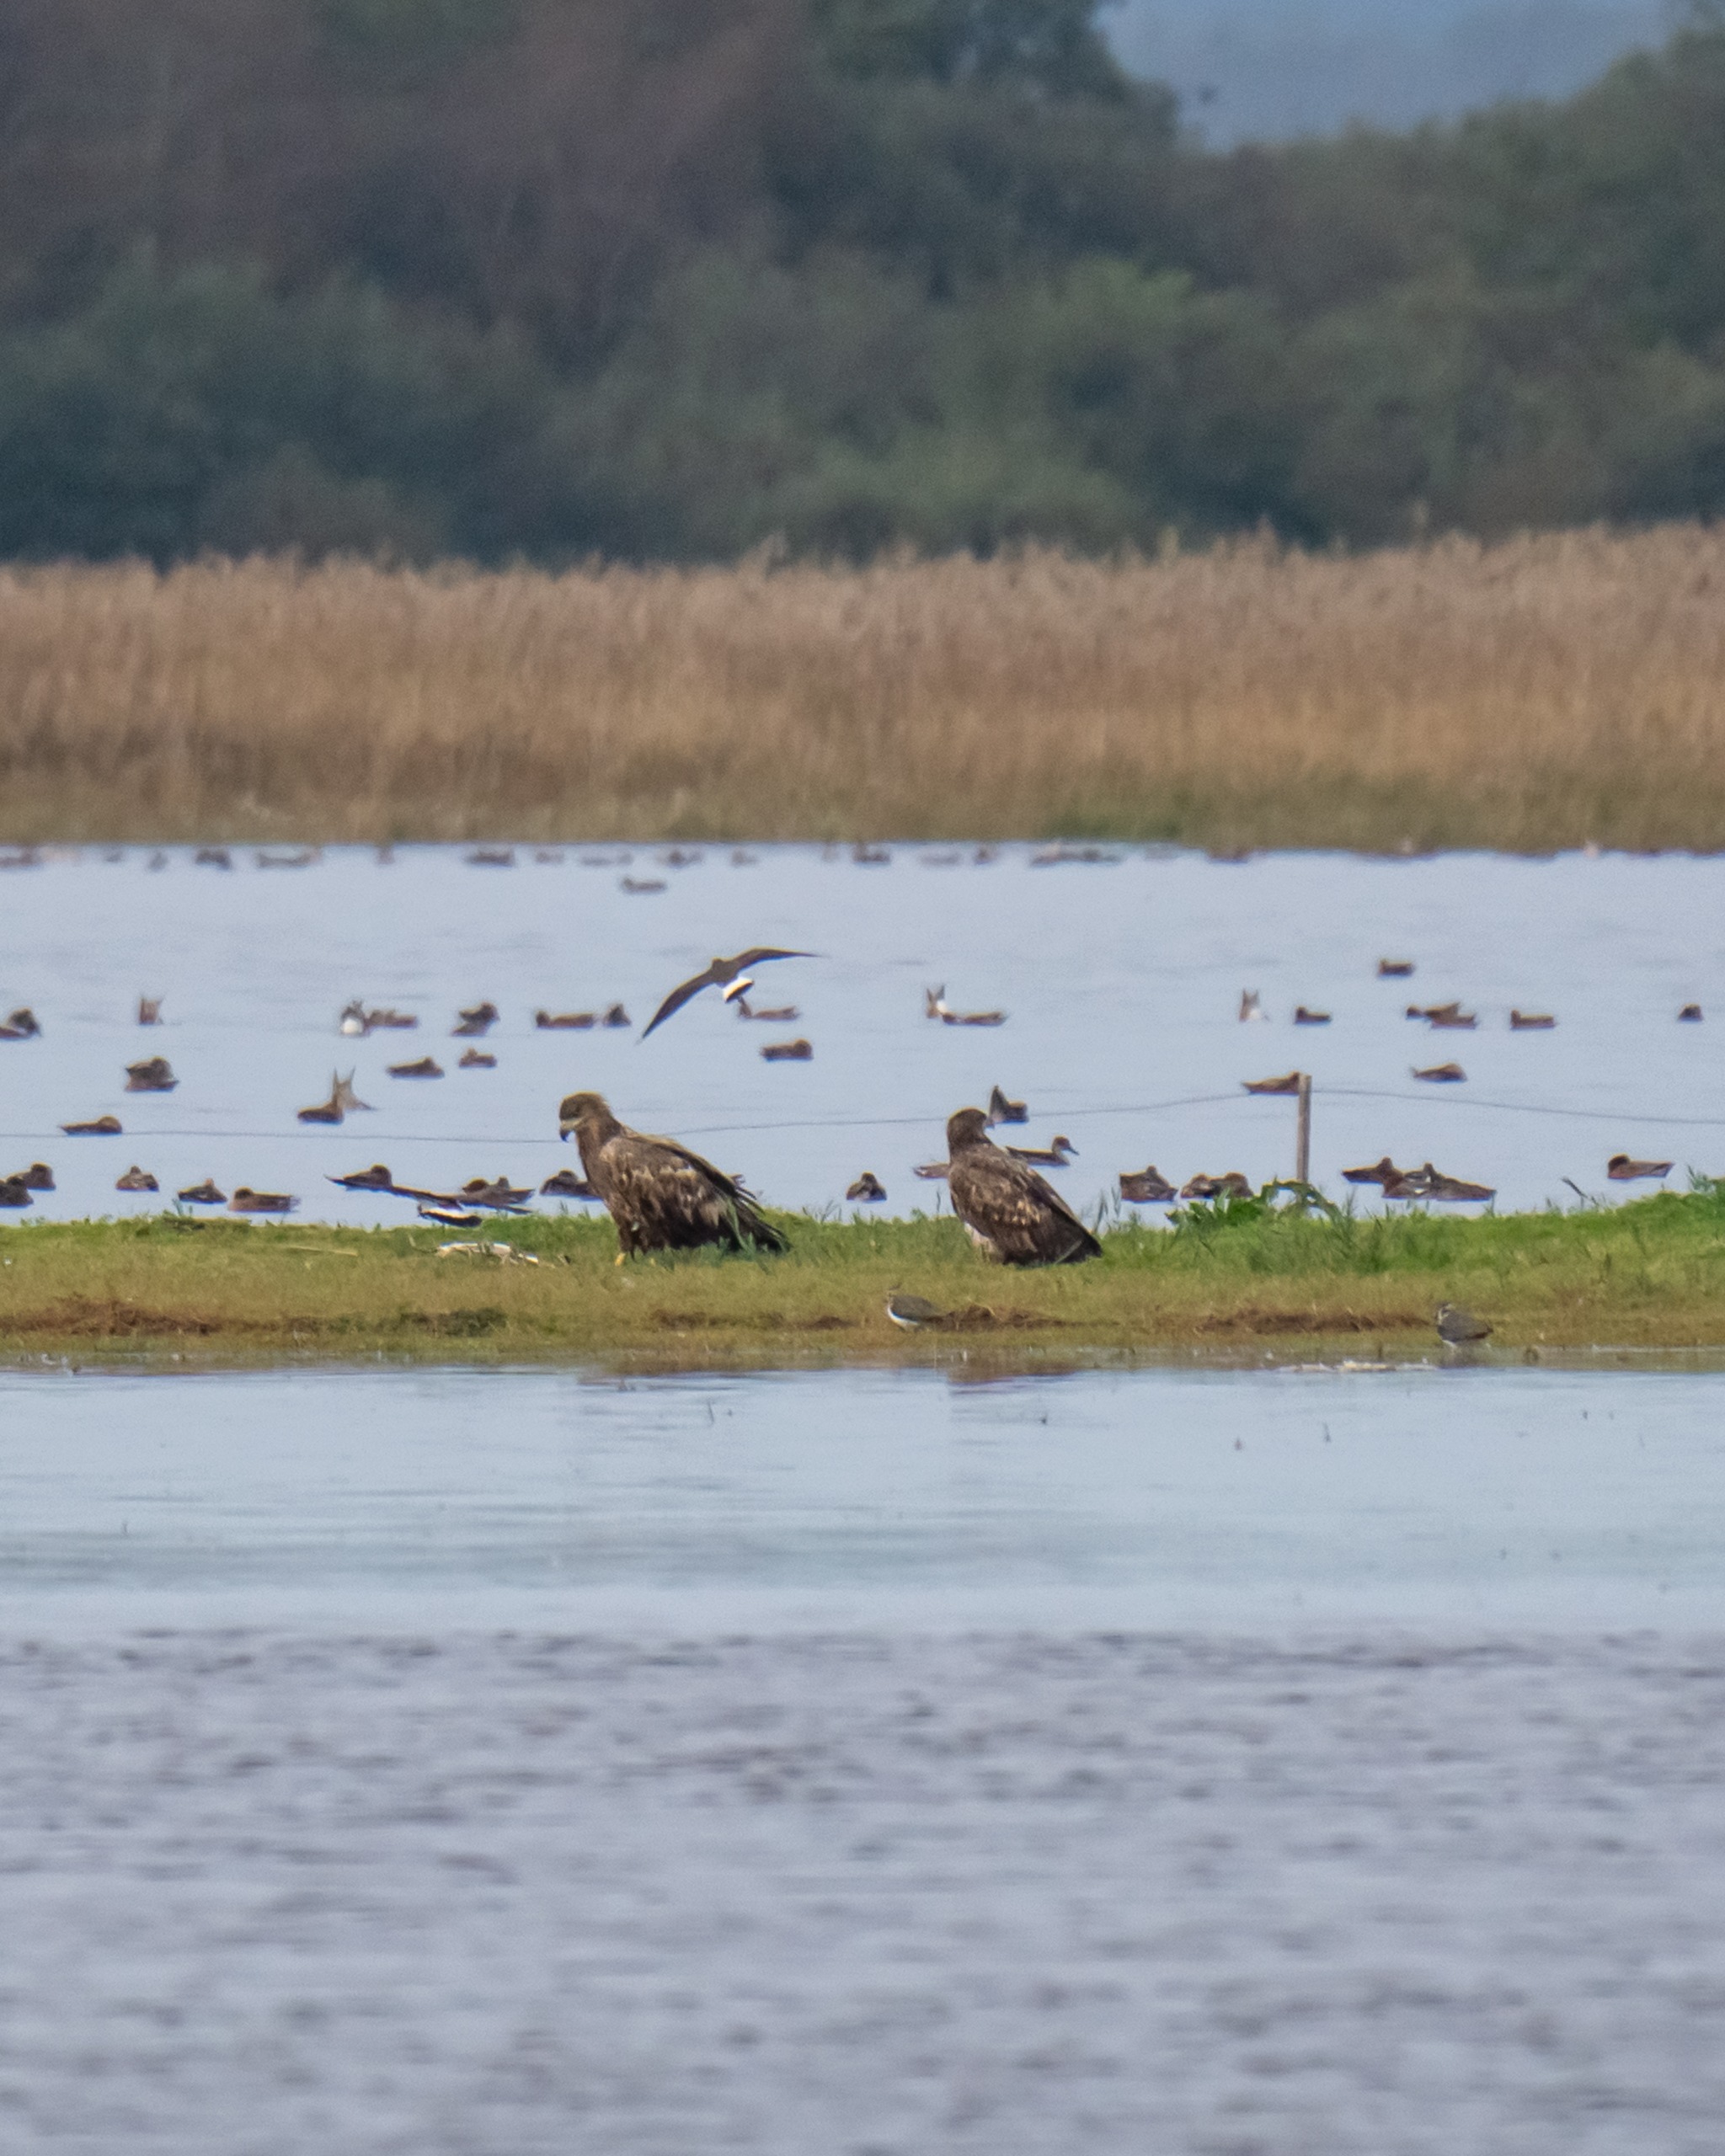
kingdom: Animalia
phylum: Chordata
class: Aves
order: Accipitriformes
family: Accipitridae
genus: Haliaeetus
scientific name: Haliaeetus albicilla
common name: Havørn
